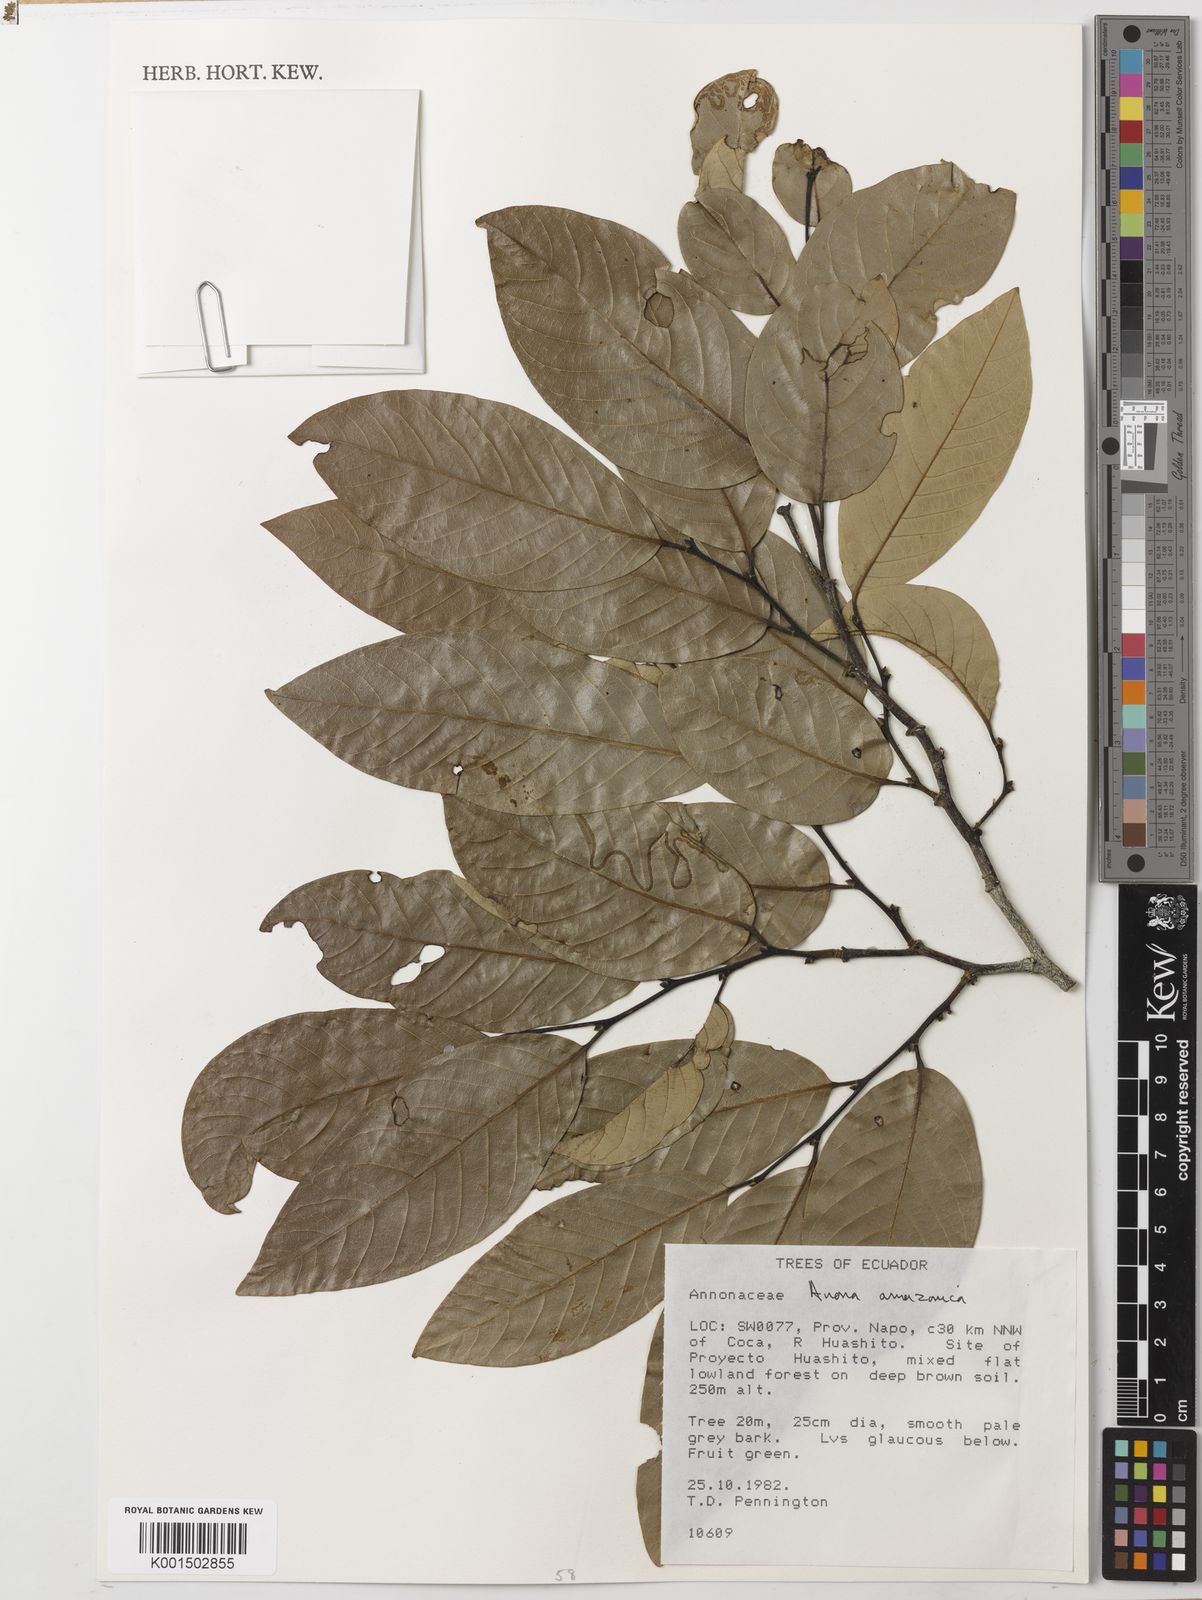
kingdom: Plantae
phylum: Tracheophyta
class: Magnoliopsida
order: Magnoliales
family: Annonaceae
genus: Annona
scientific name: Annona amazonica
